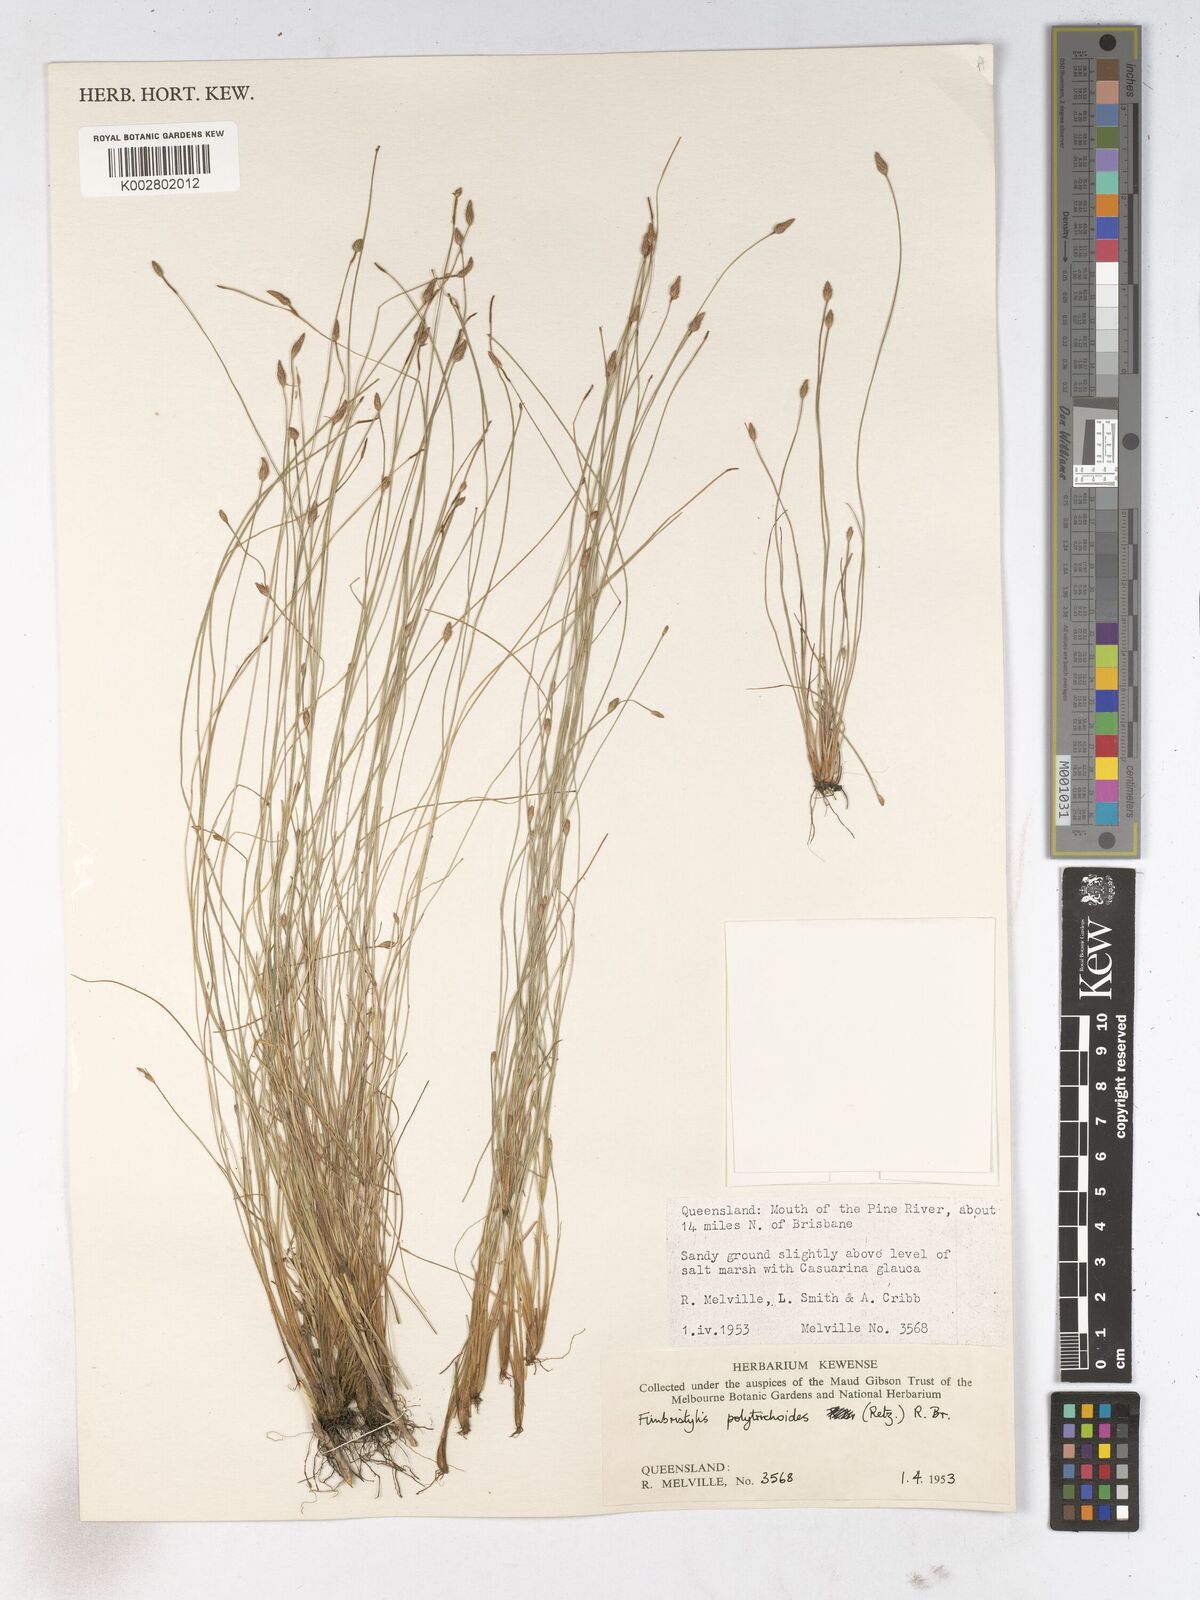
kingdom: Plantae
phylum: Tracheophyta
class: Liliopsida
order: Poales
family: Cyperaceae
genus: Fimbristylis
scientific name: Fimbristylis polytrichoides
